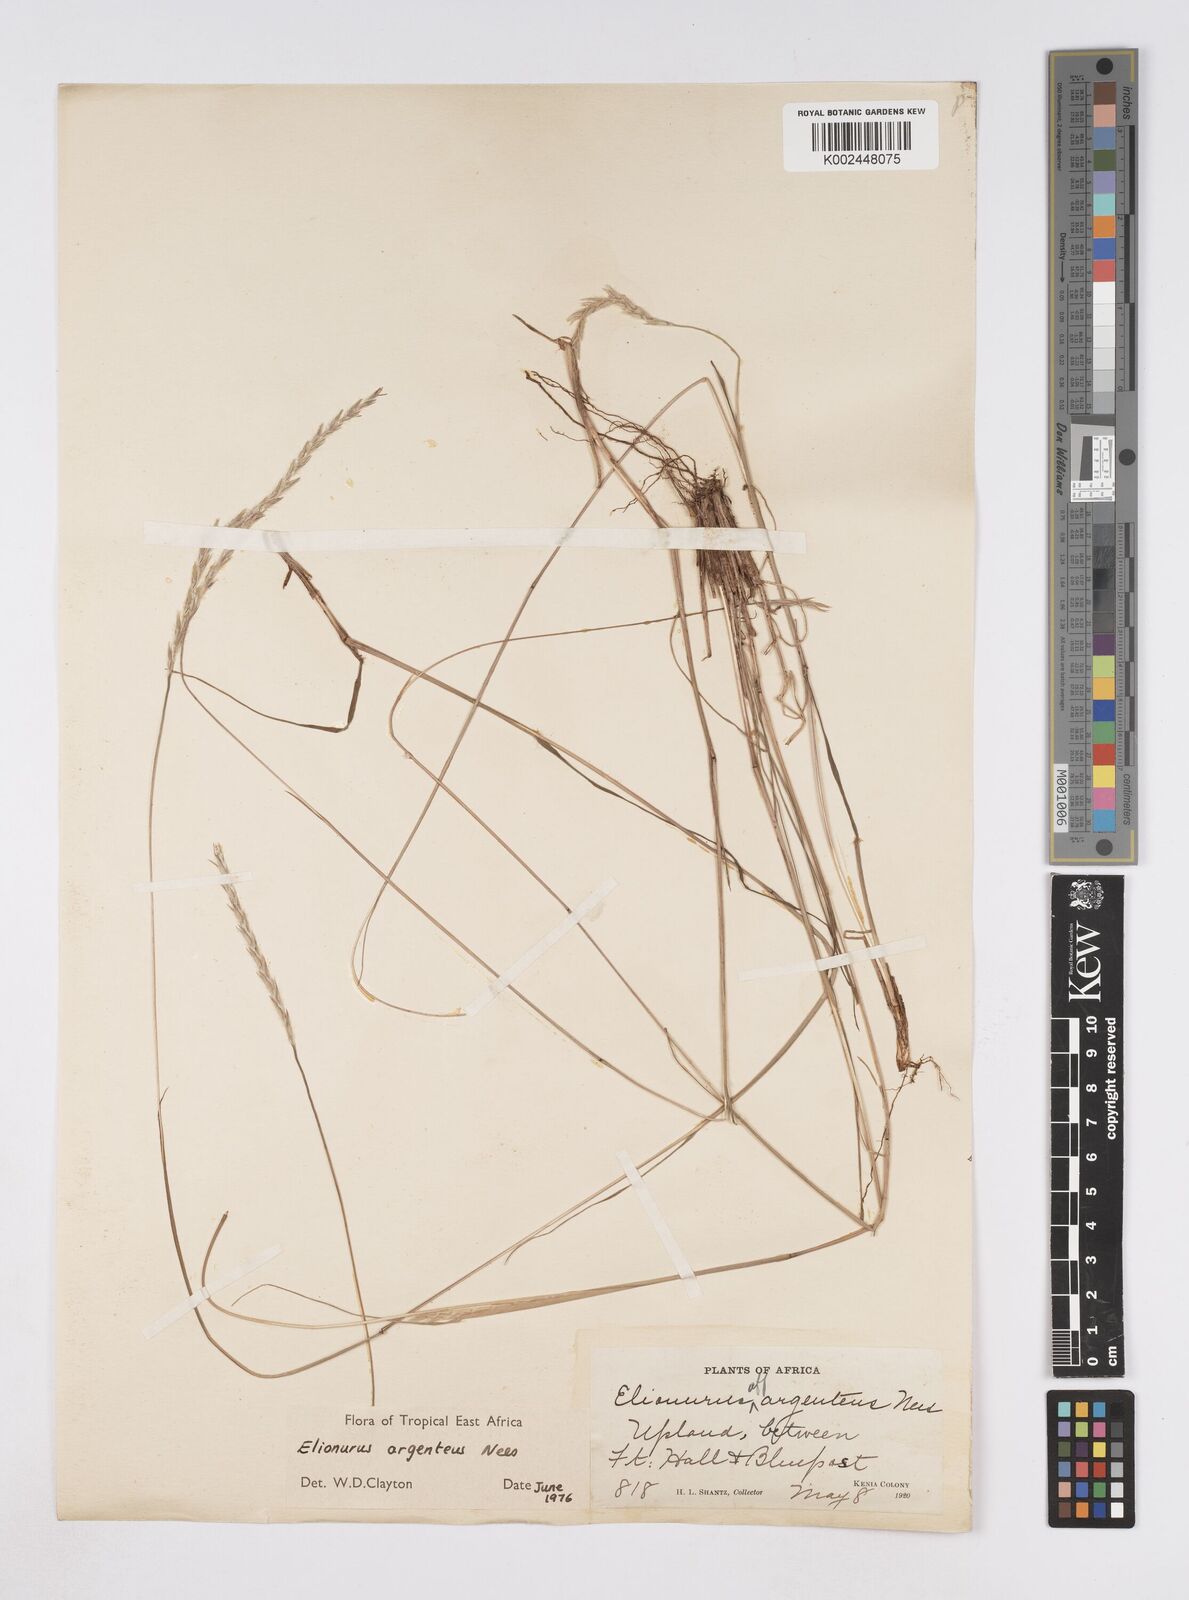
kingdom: Plantae
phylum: Tracheophyta
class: Liliopsida
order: Poales
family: Poaceae
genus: Elionurus
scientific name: Elionurus muticus
